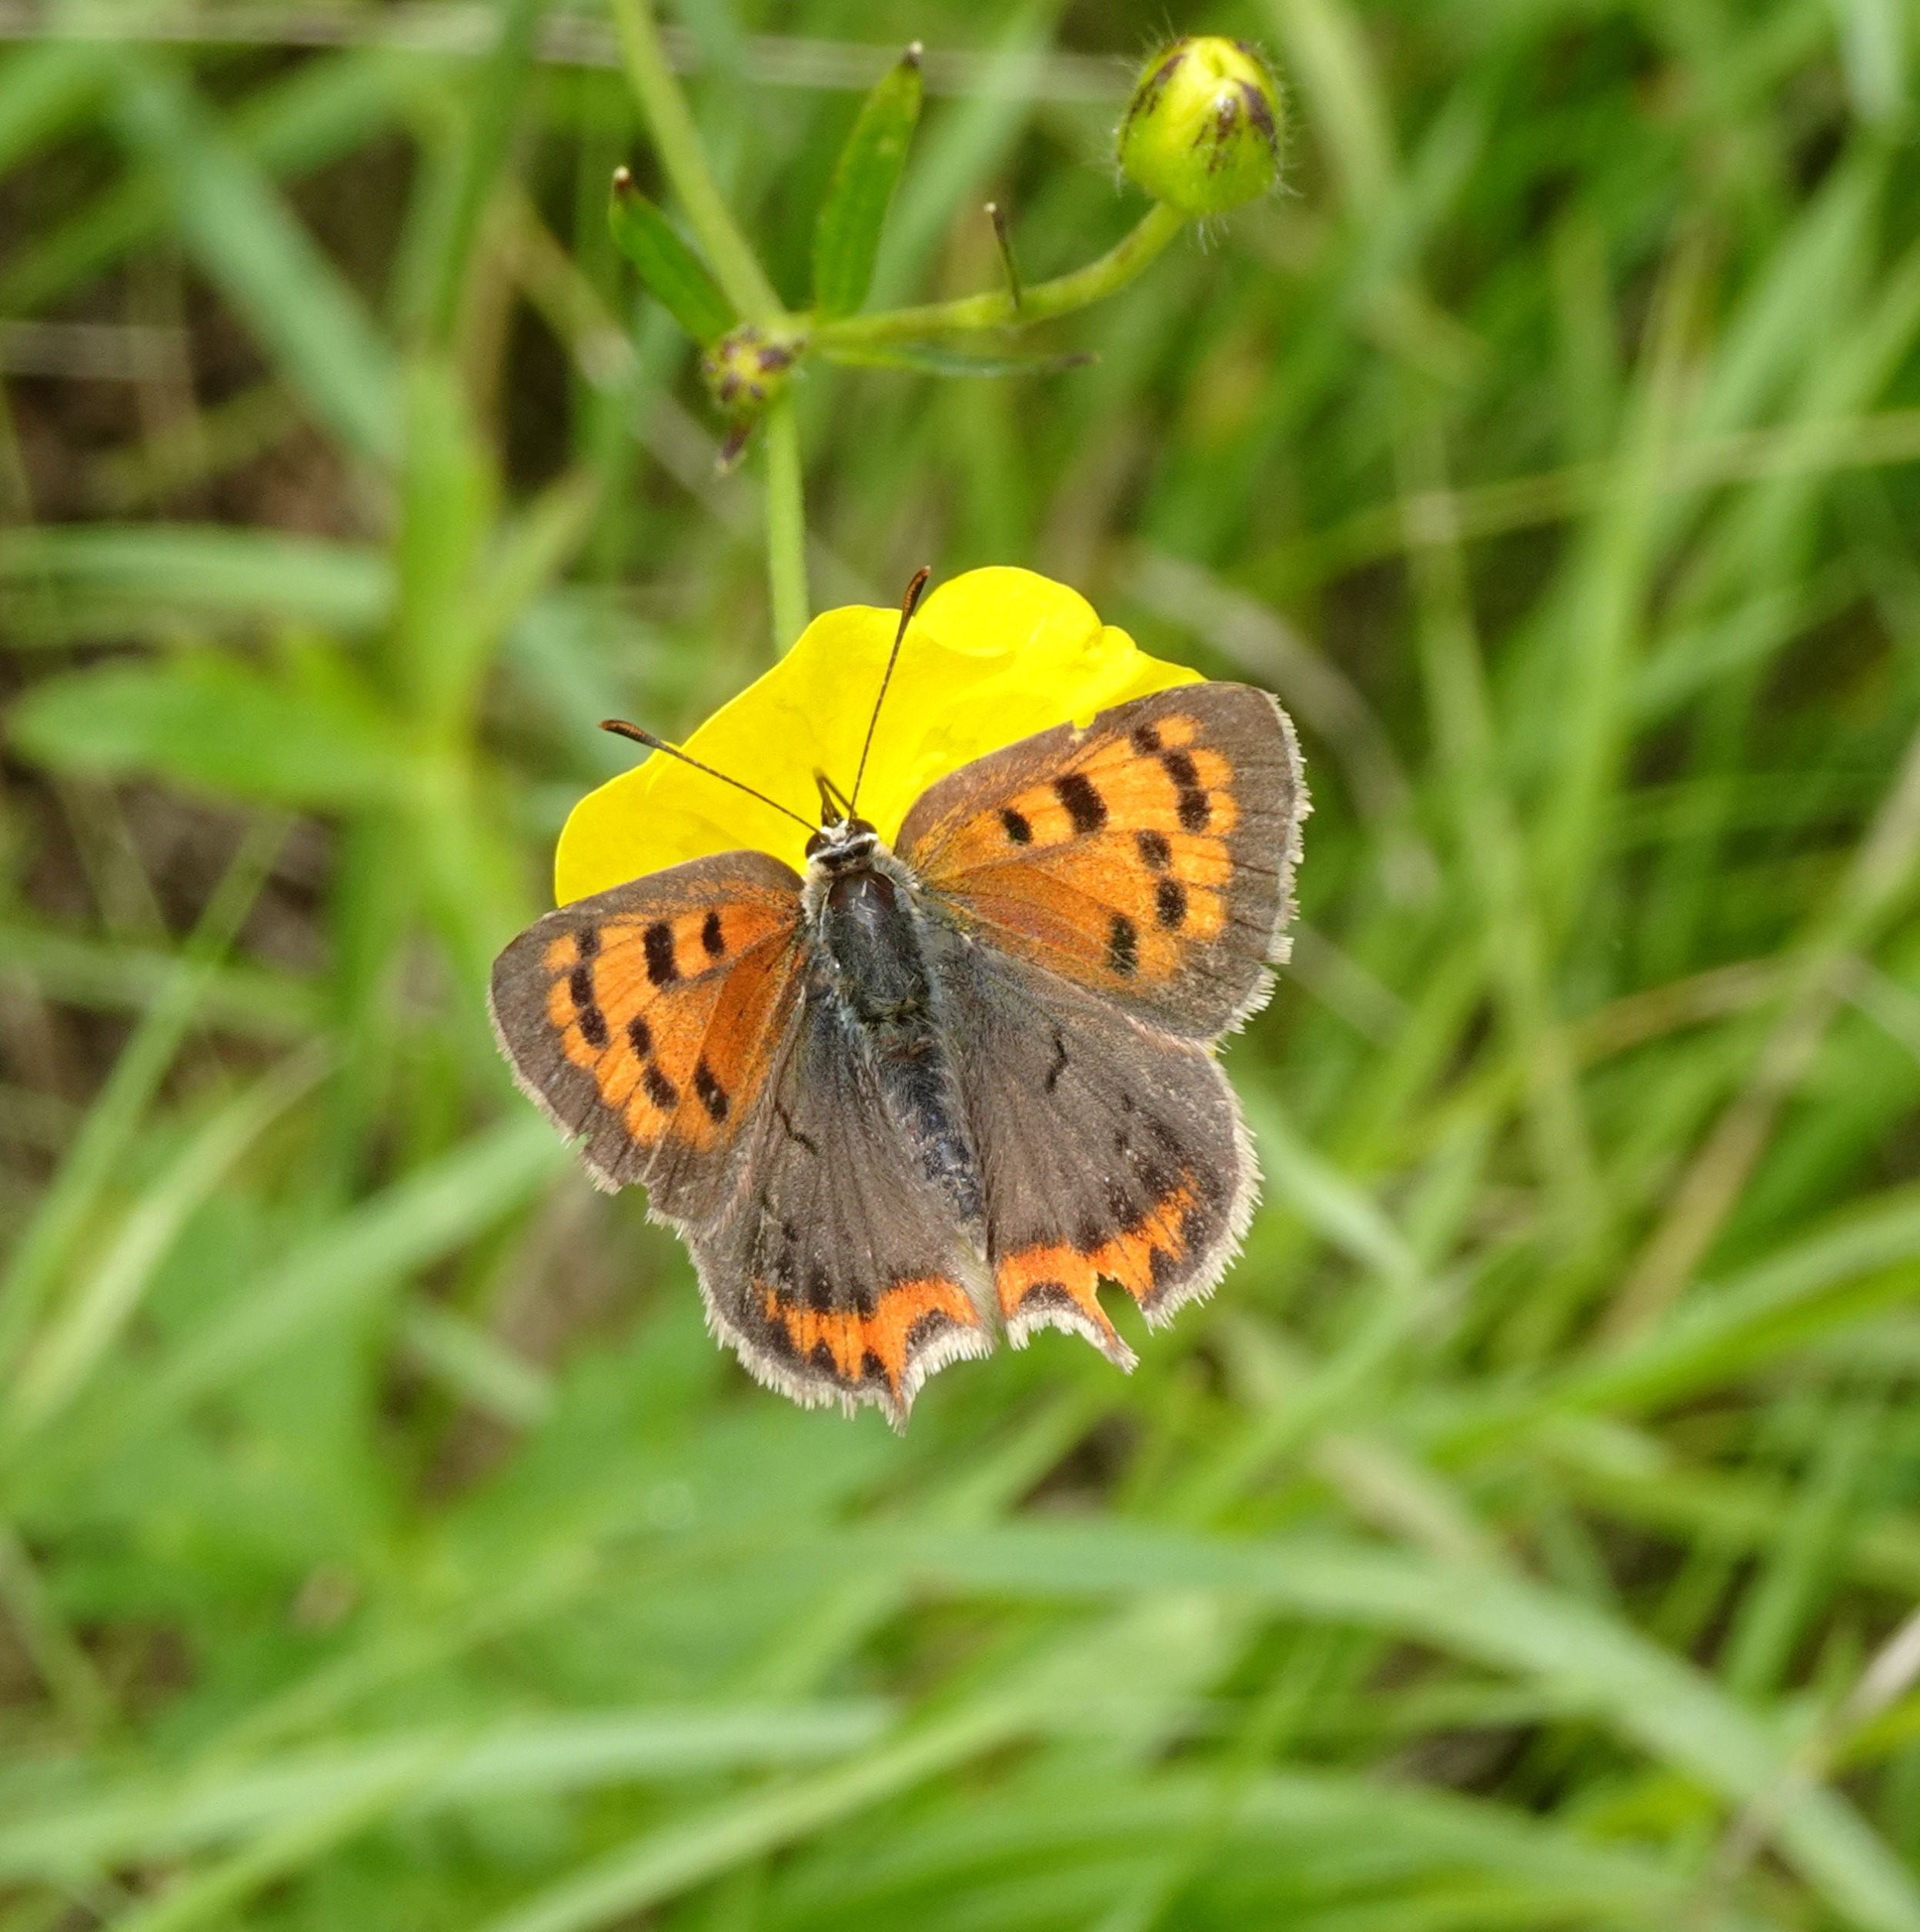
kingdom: Animalia
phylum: Arthropoda
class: Insecta
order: Lepidoptera
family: Lycaenidae
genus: Lycaena
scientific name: Lycaena phlaeas
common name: Lille ildfugl
